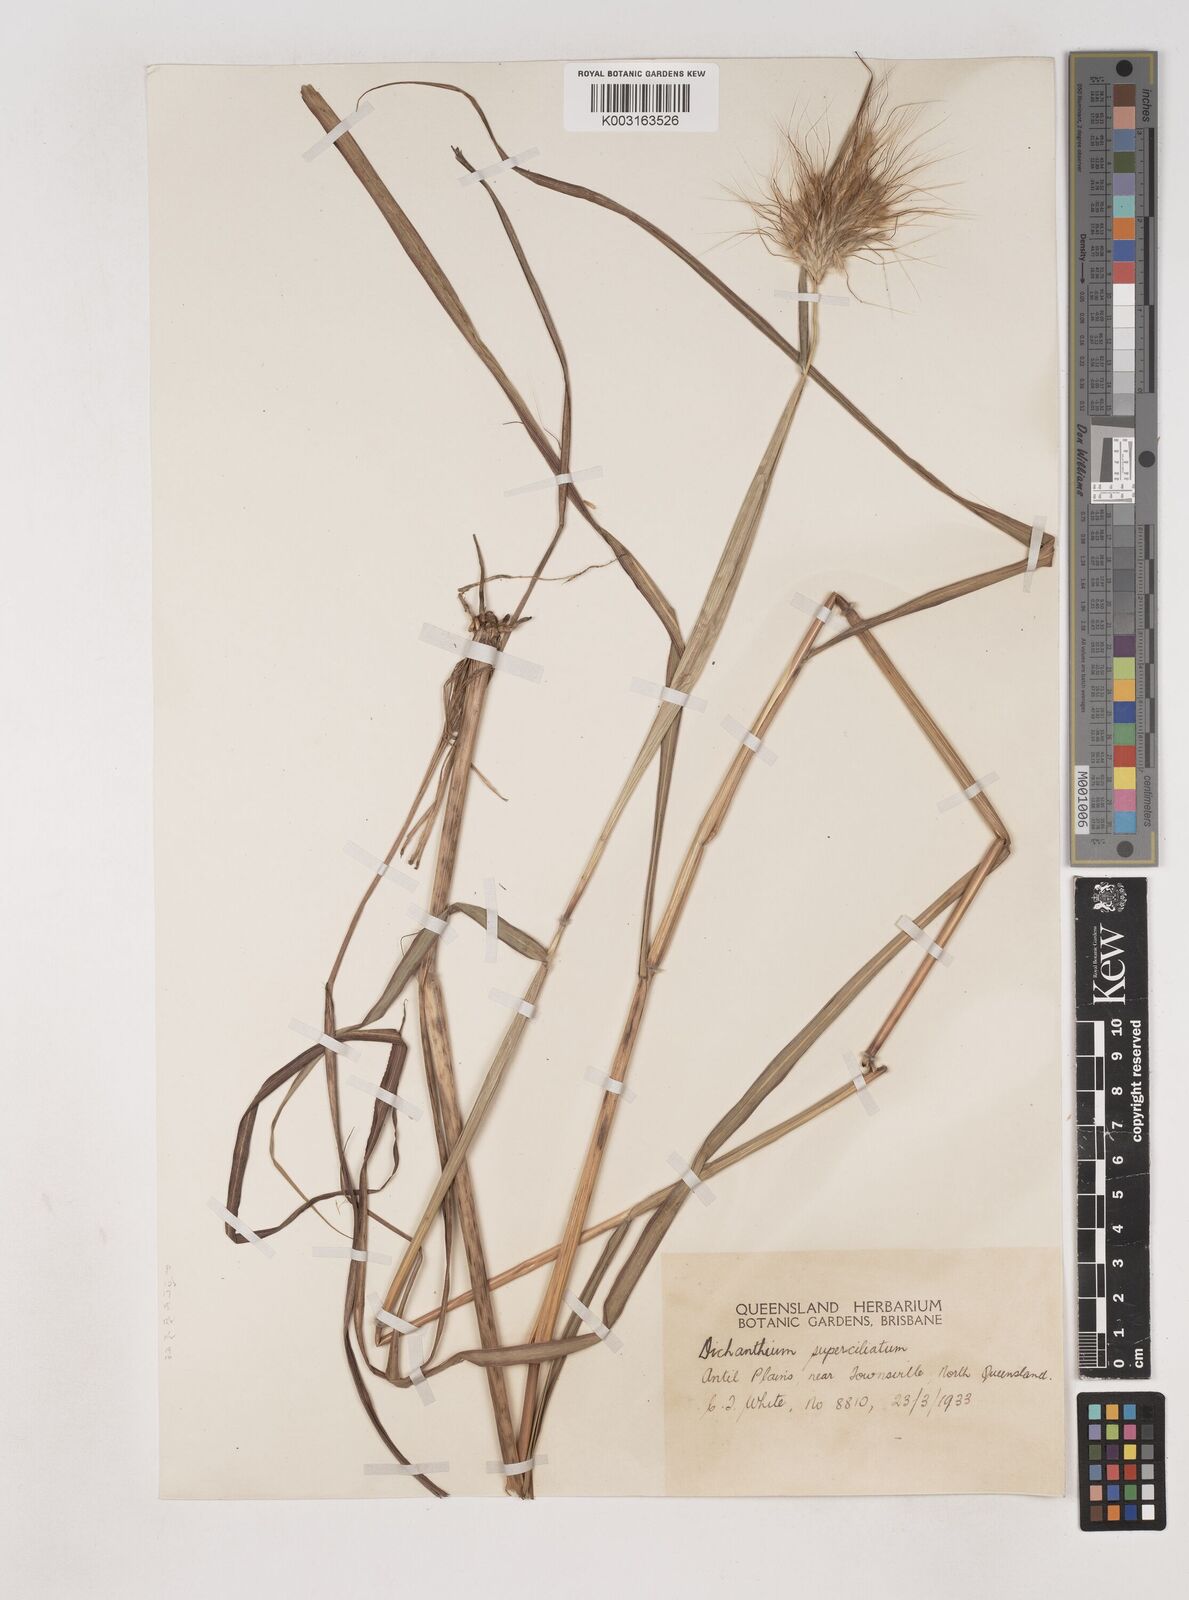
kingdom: Plantae
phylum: Tracheophyta
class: Liliopsida
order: Poales
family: Poaceae
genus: Dichanthium
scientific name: Dichanthium sericeum
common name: Silky bluestem
